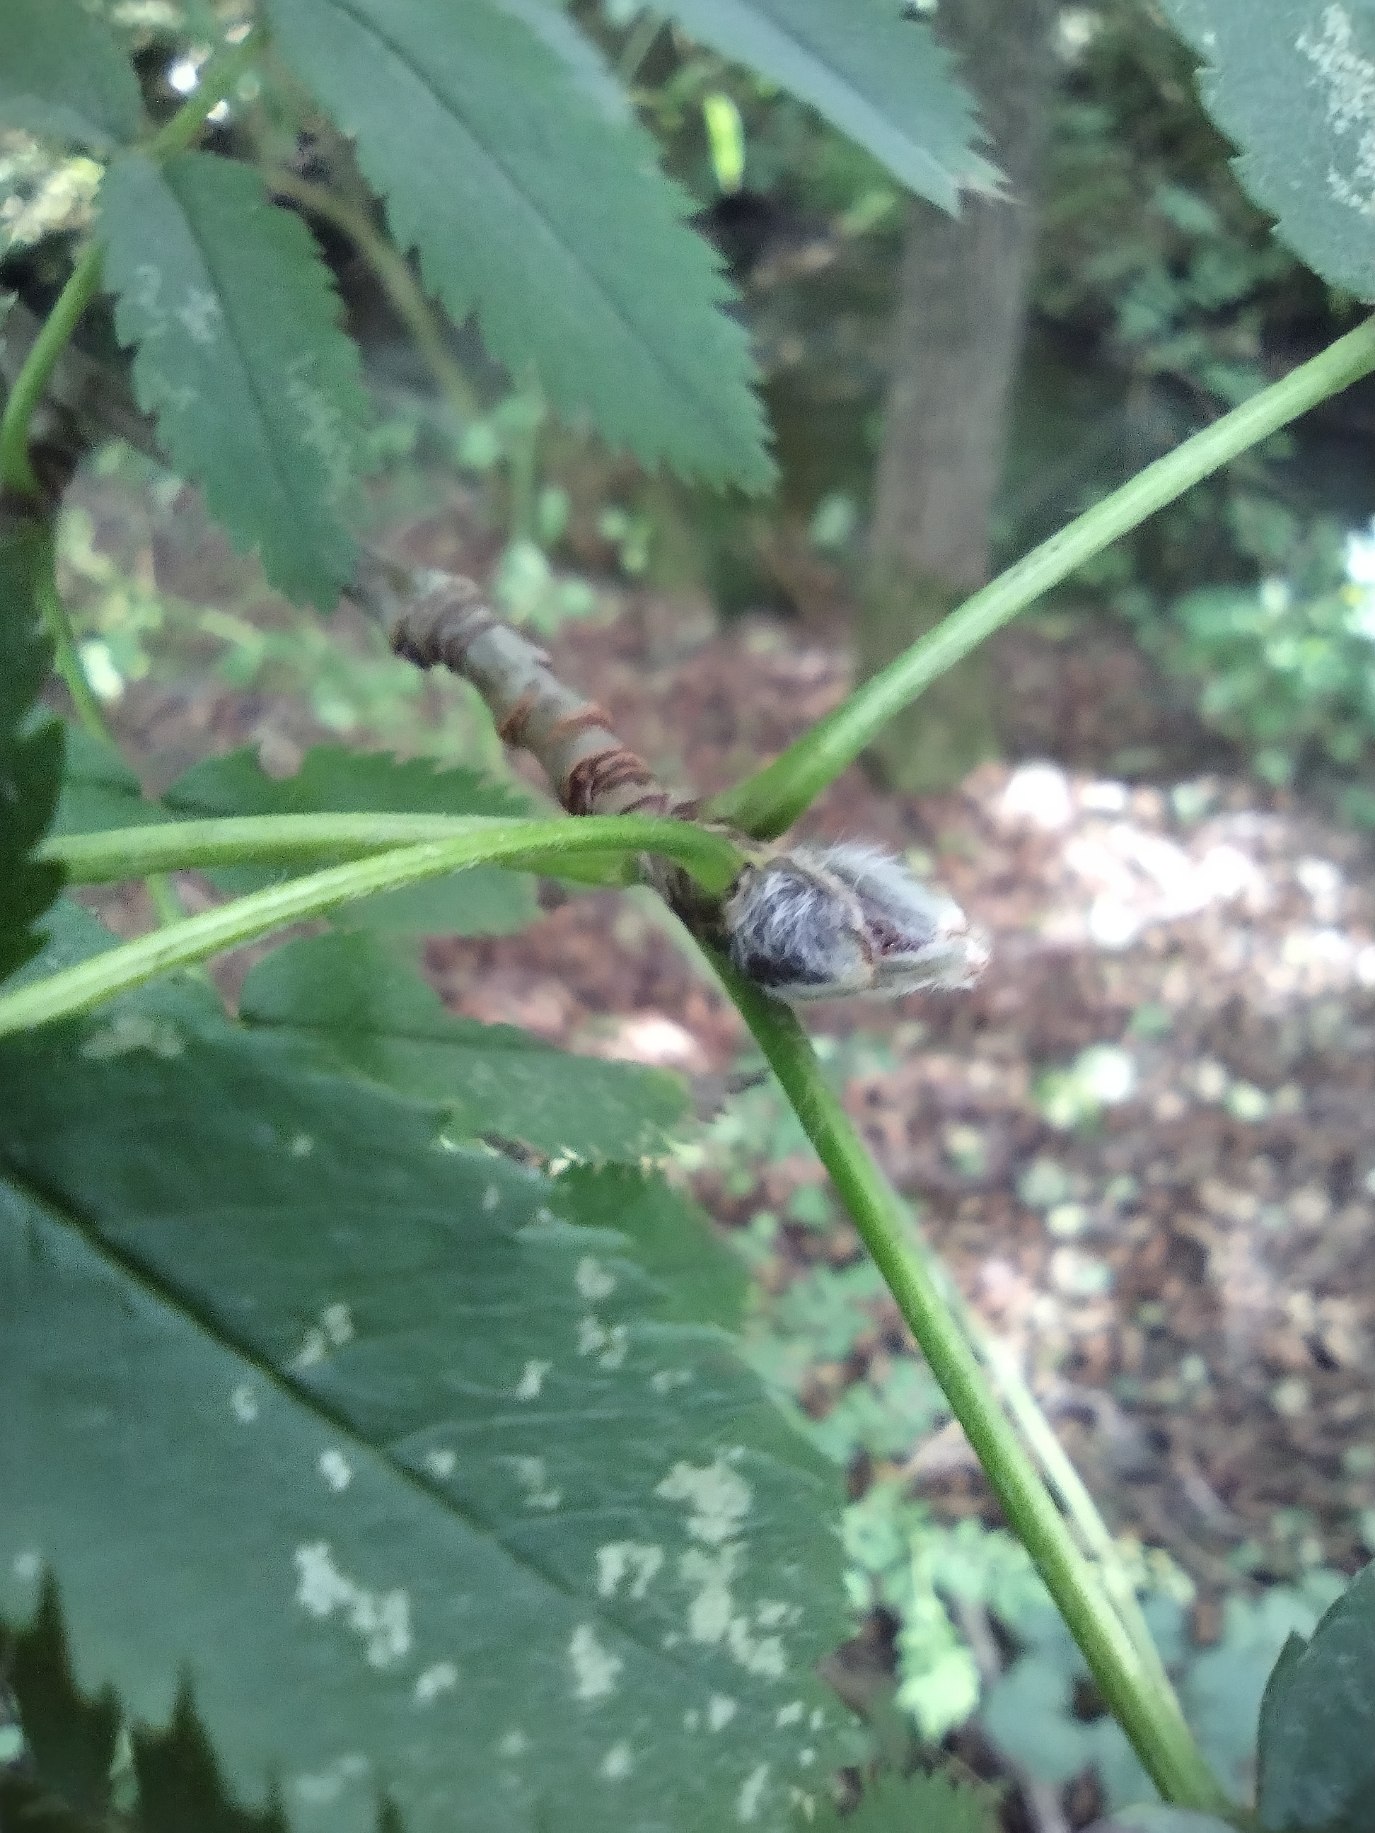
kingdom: Plantae
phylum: Tracheophyta
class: Magnoliopsida
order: Rosales
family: Rosaceae
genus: Sorbus
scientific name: Sorbus aucuparia
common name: Almindelig røn
